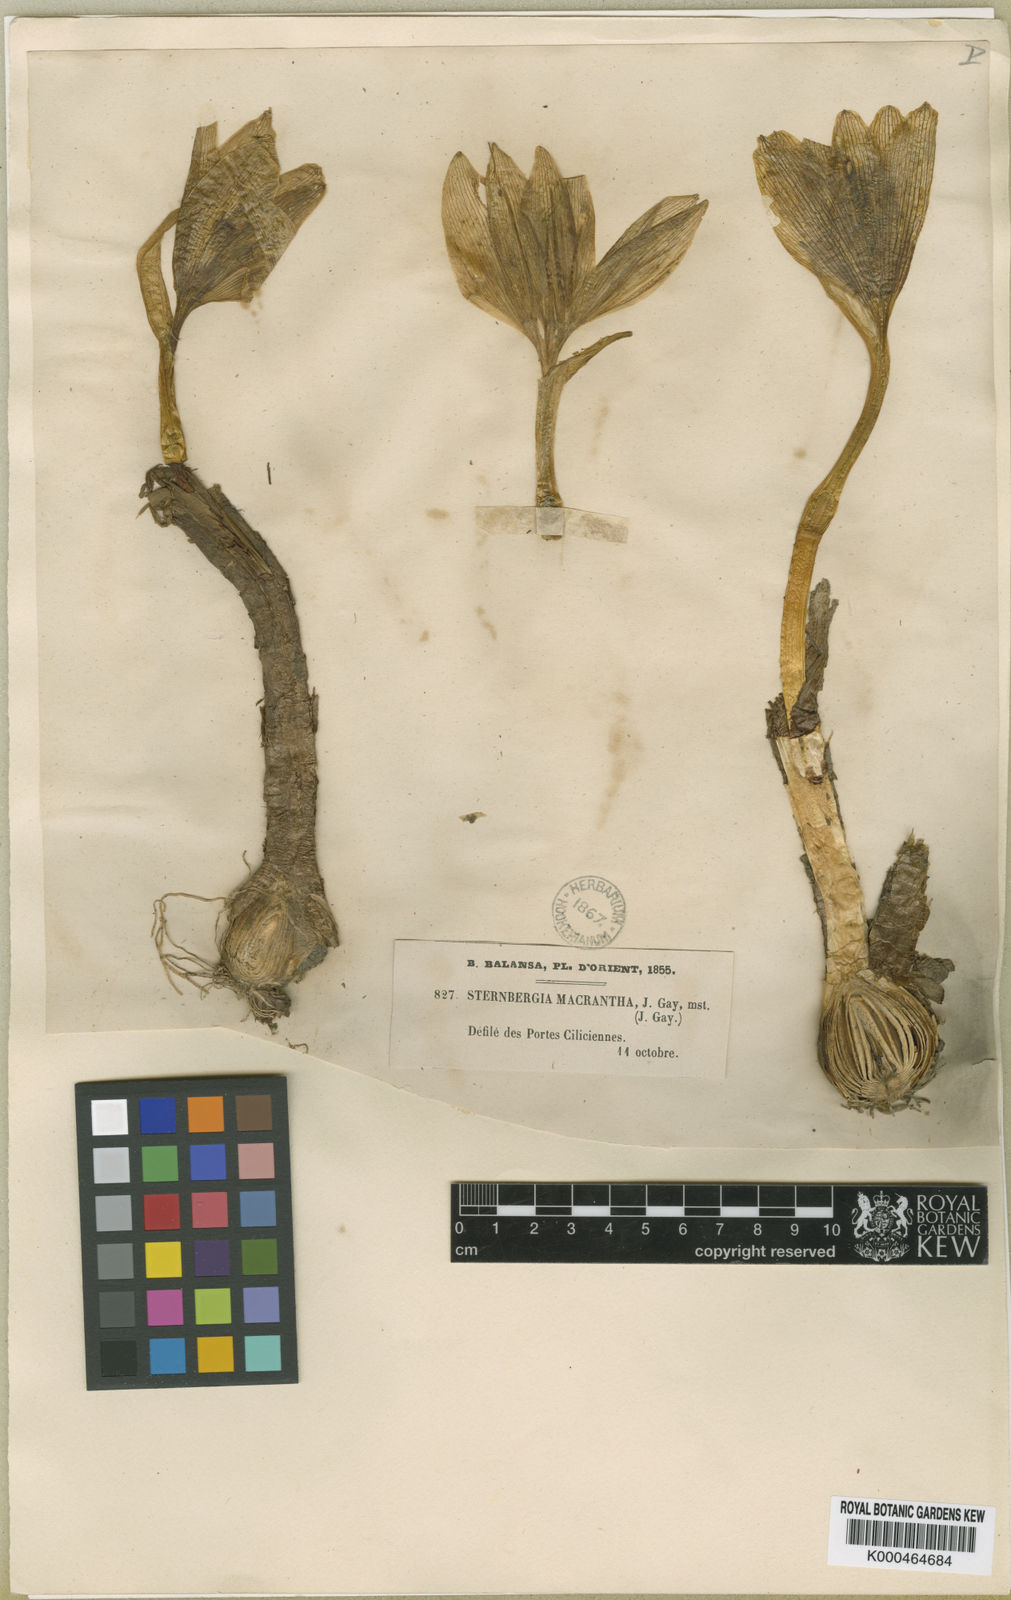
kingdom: Plantae
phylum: Tracheophyta
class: Liliopsida
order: Asparagales
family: Amaryllidaceae
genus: Sternbergia
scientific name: Sternbergia
